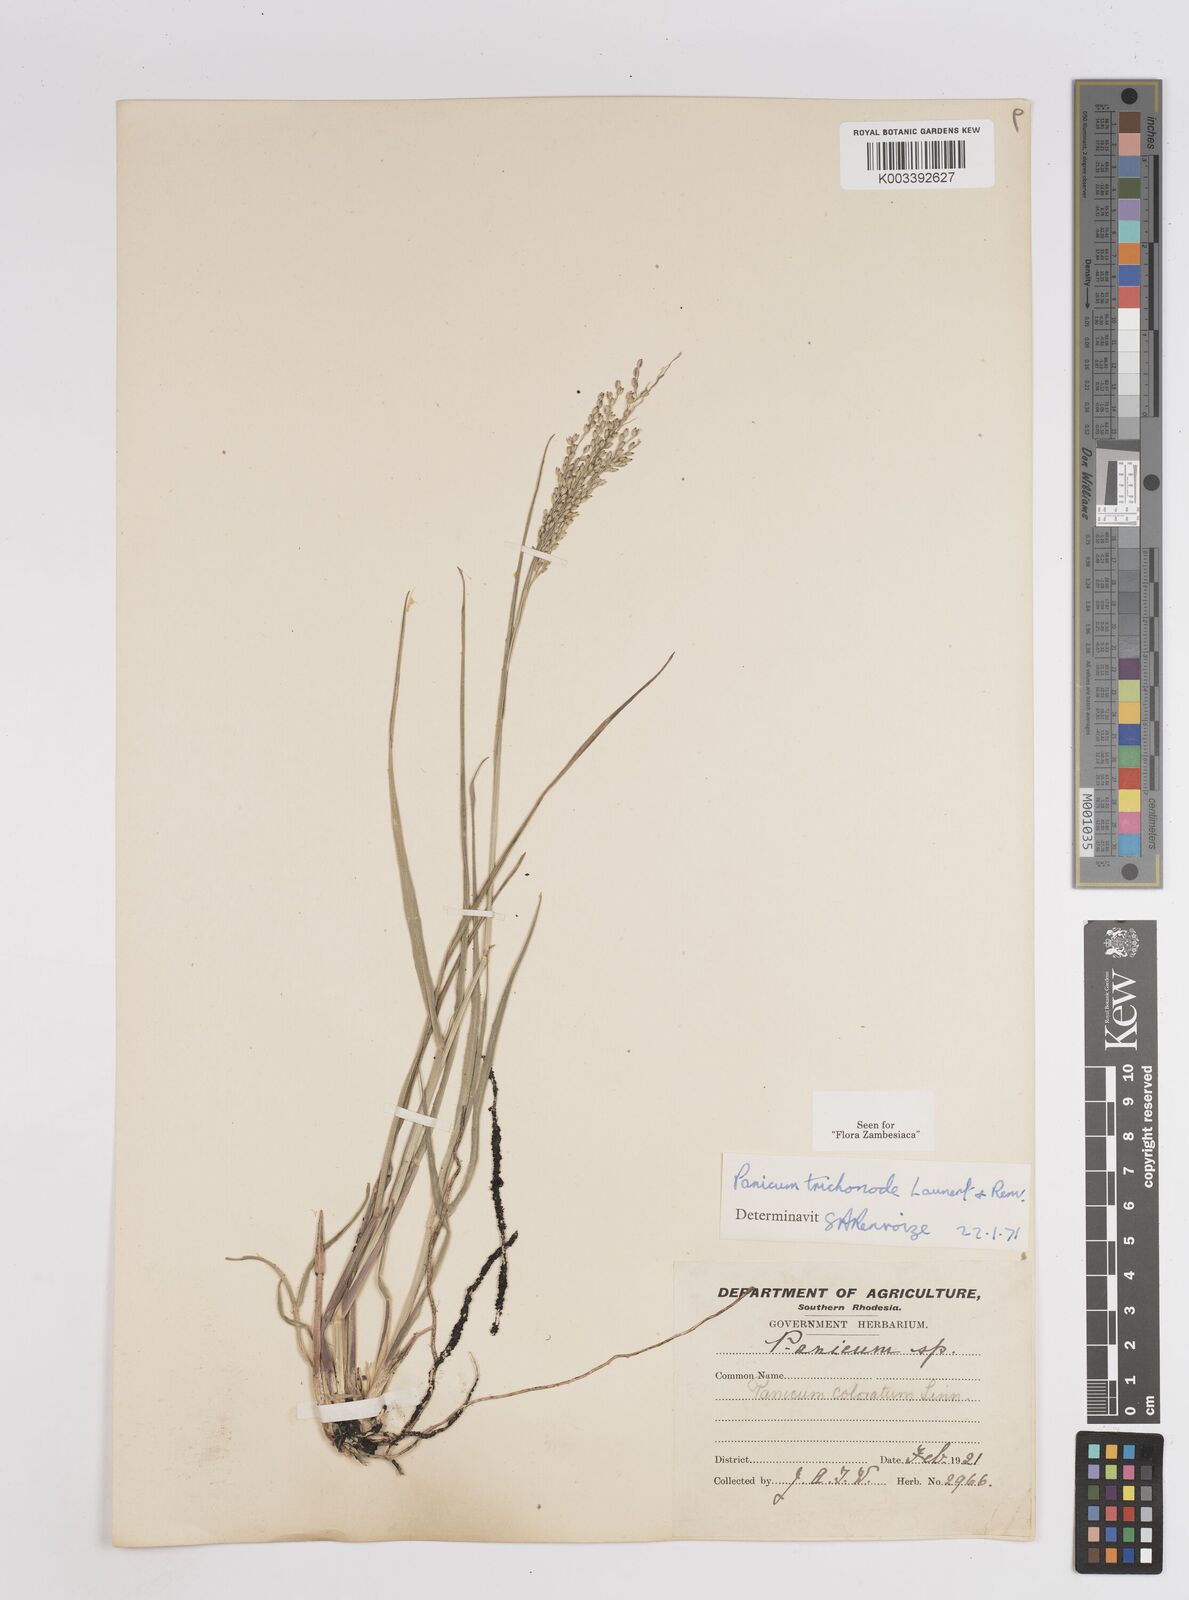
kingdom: Plantae
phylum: Tracheophyta
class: Liliopsida
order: Poales
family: Poaceae
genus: Panicum
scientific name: Panicum trichonode
